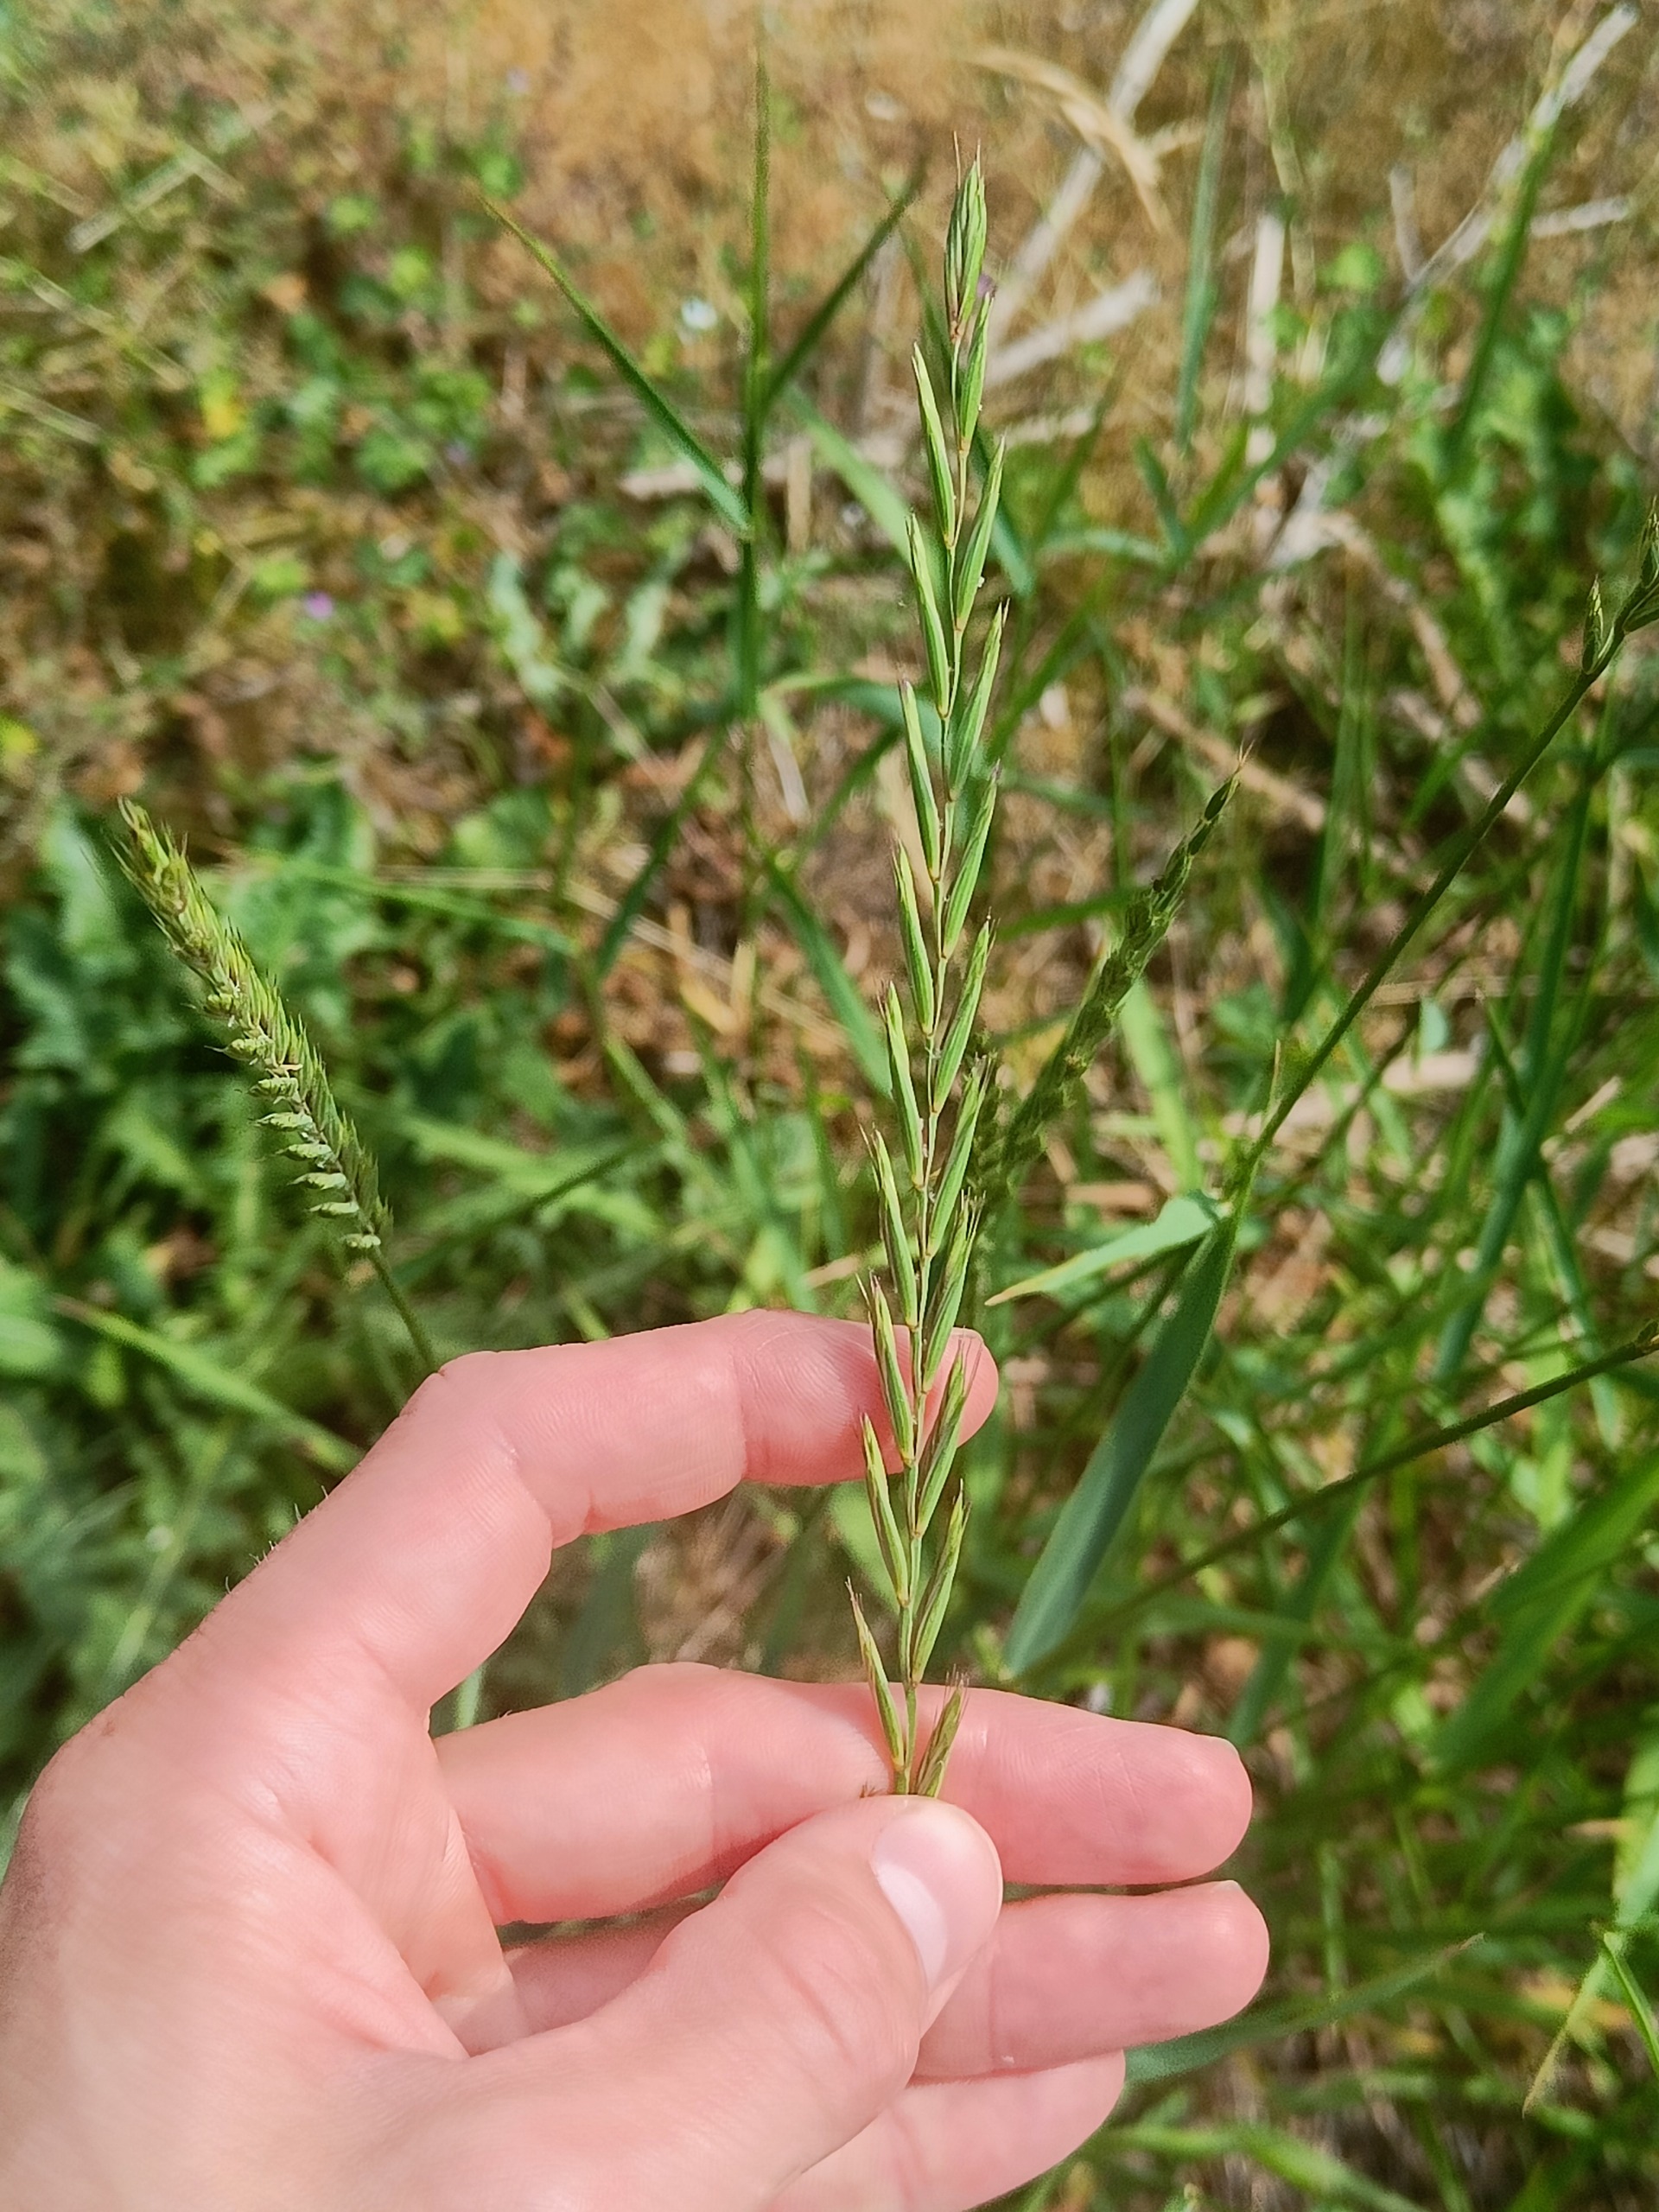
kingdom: Plantae
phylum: Tracheophyta
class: Liliopsida
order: Poales
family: Poaceae
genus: Elymus
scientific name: Elymus repens
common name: Almindelig kvik
